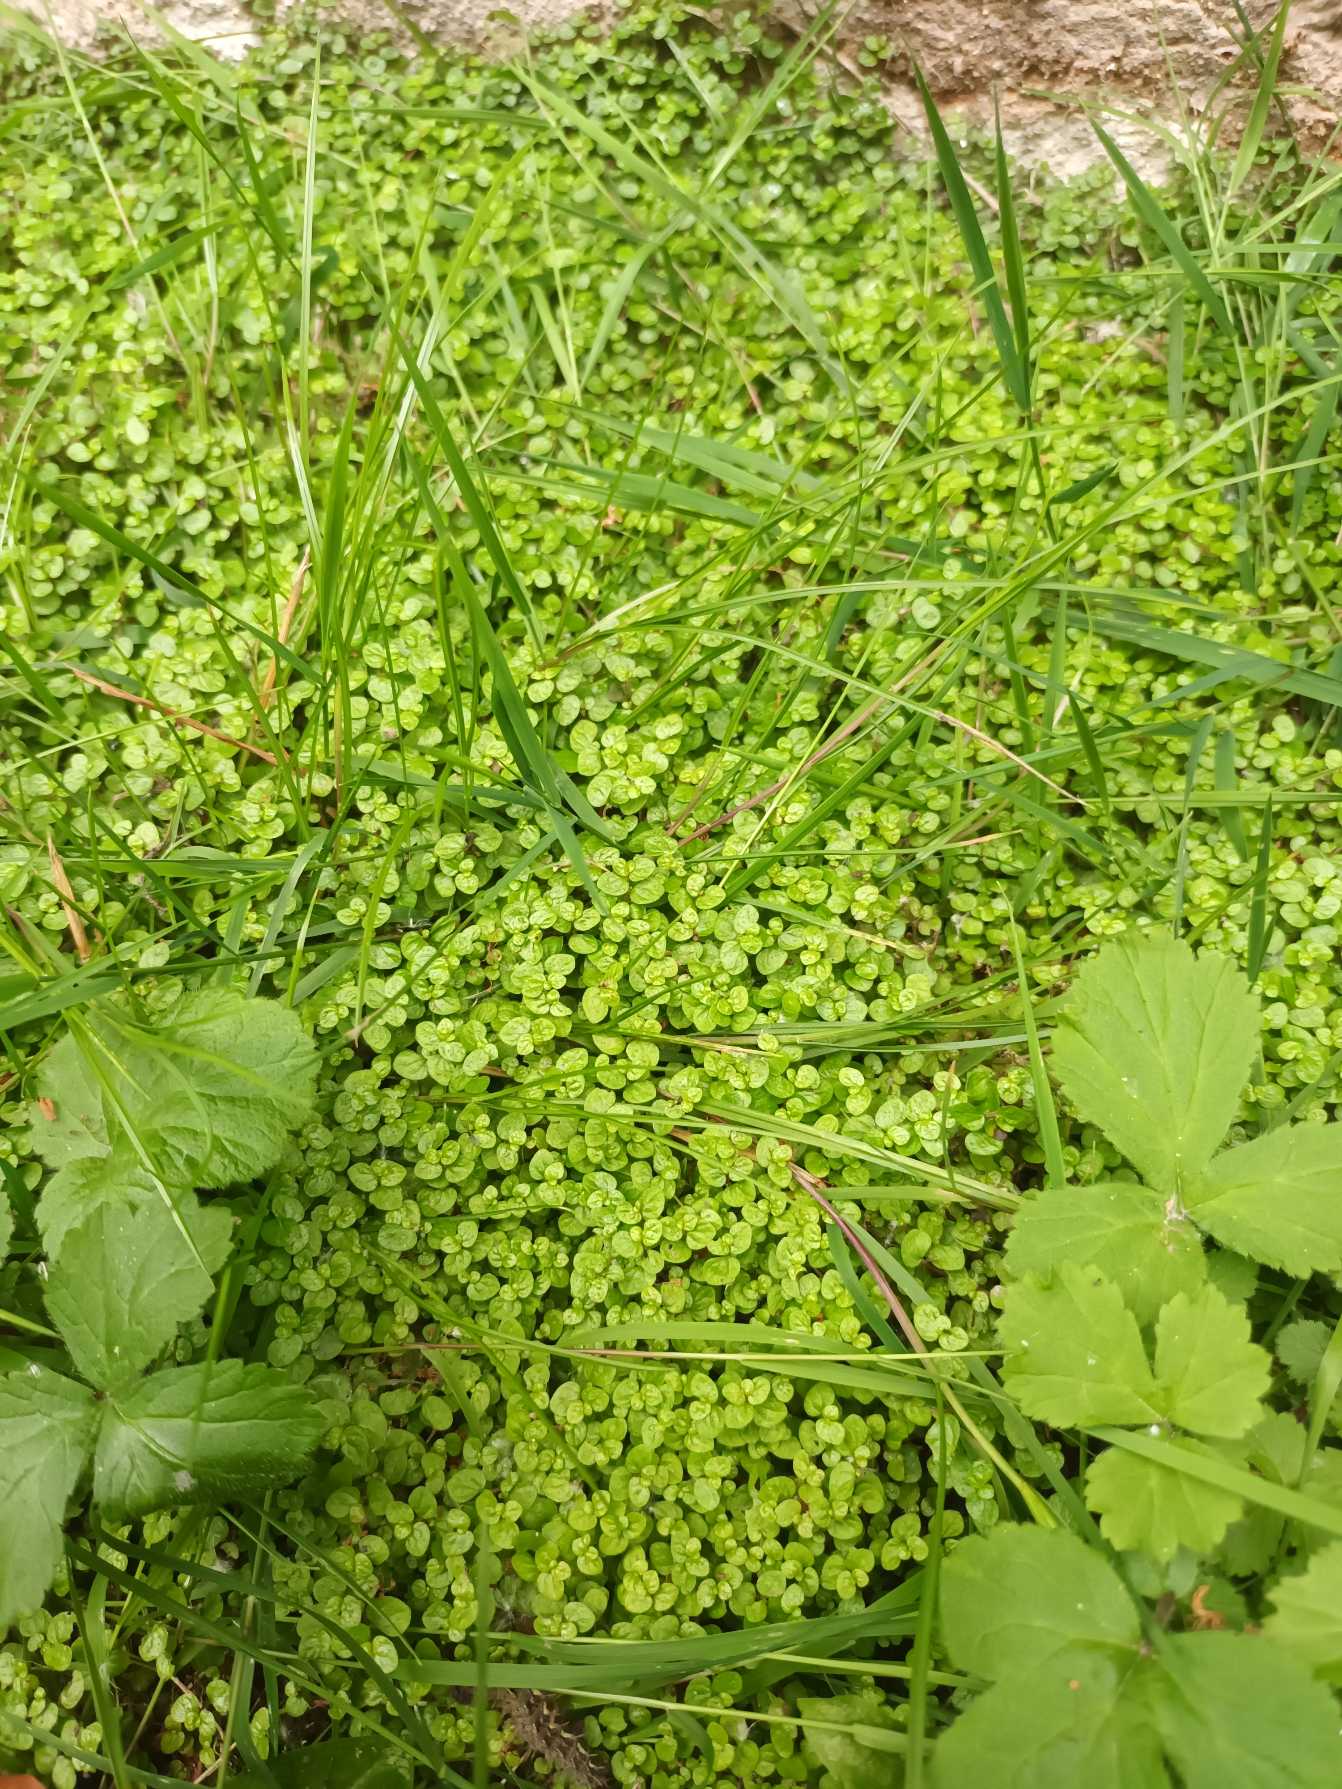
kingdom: Plantae
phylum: Tracheophyta
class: Magnoliopsida
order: Rosales
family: Urticaceae
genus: Soleirolia
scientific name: Soleirolia soleirolii
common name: Husfred
